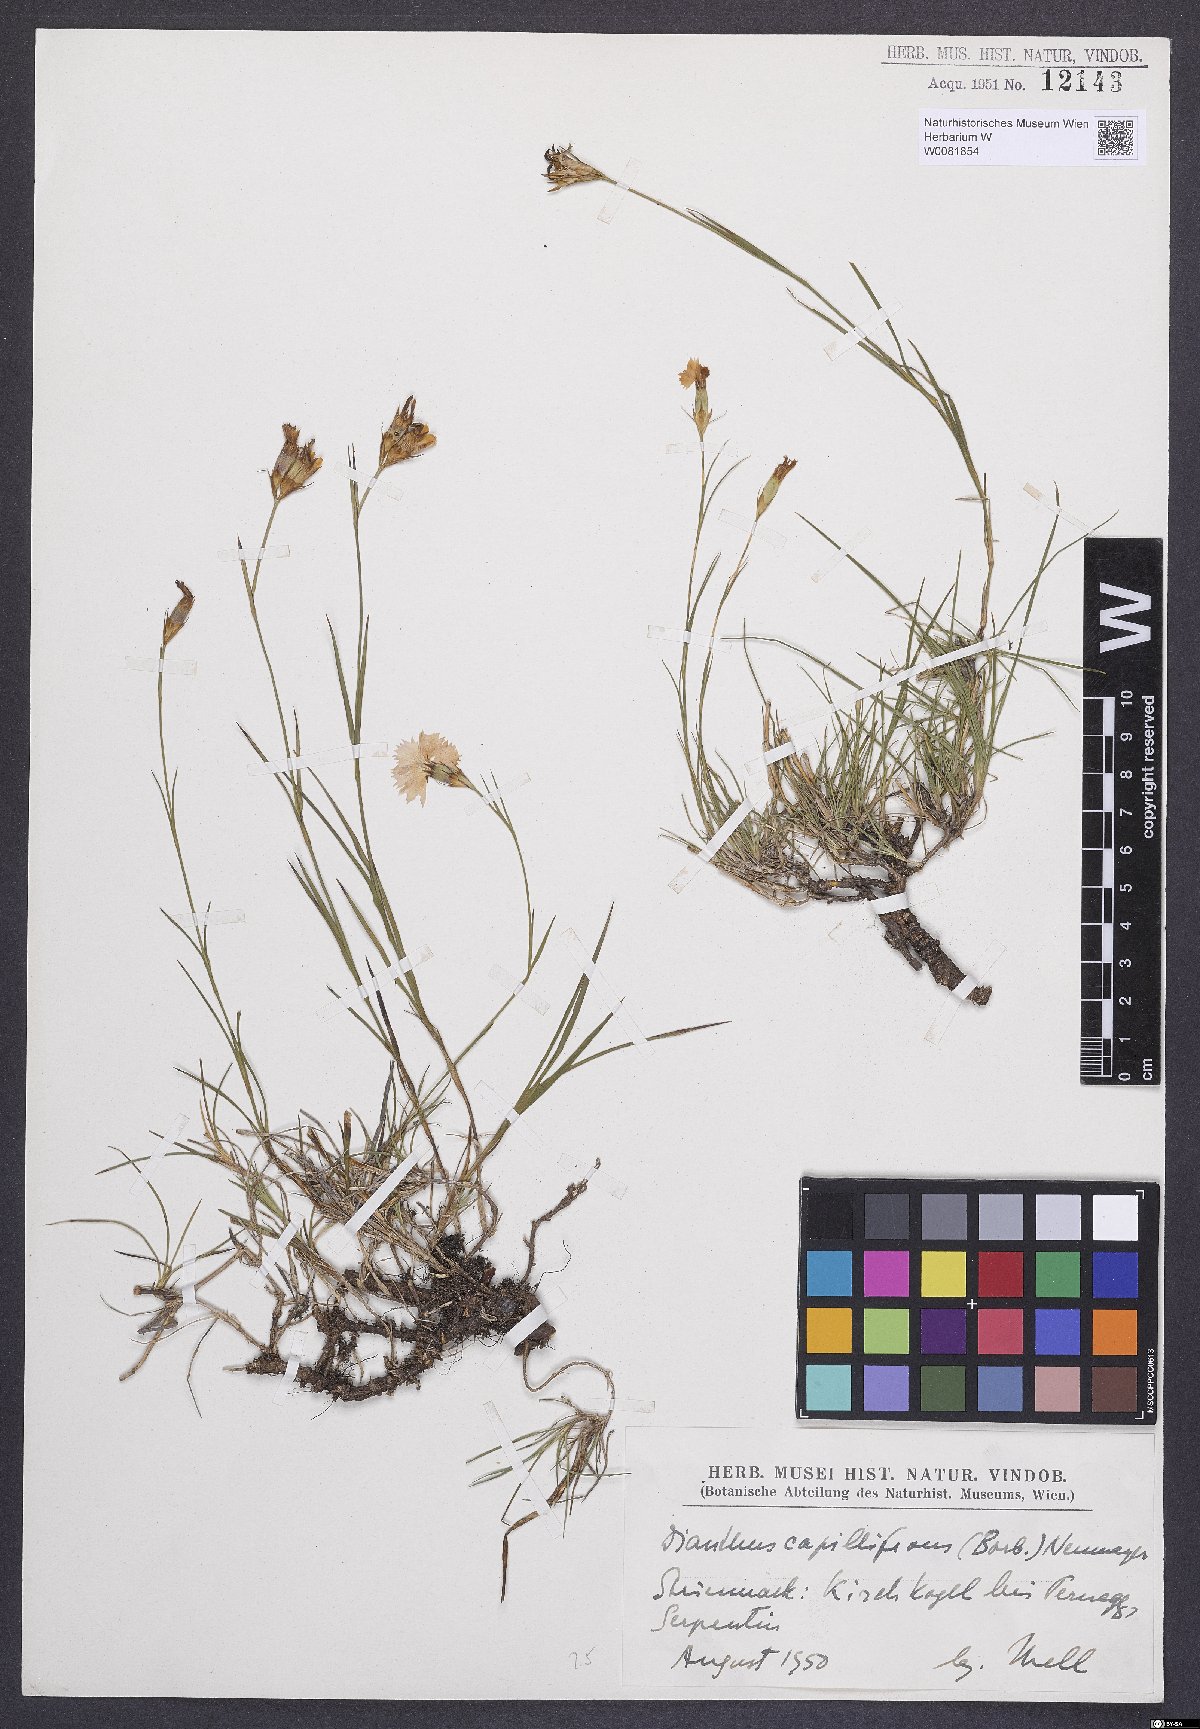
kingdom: Plantae
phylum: Tracheophyta
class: Magnoliopsida
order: Caryophyllales
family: Caryophyllaceae
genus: Dianthus
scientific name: Dianthus carthusianorum
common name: Carthusian pink
